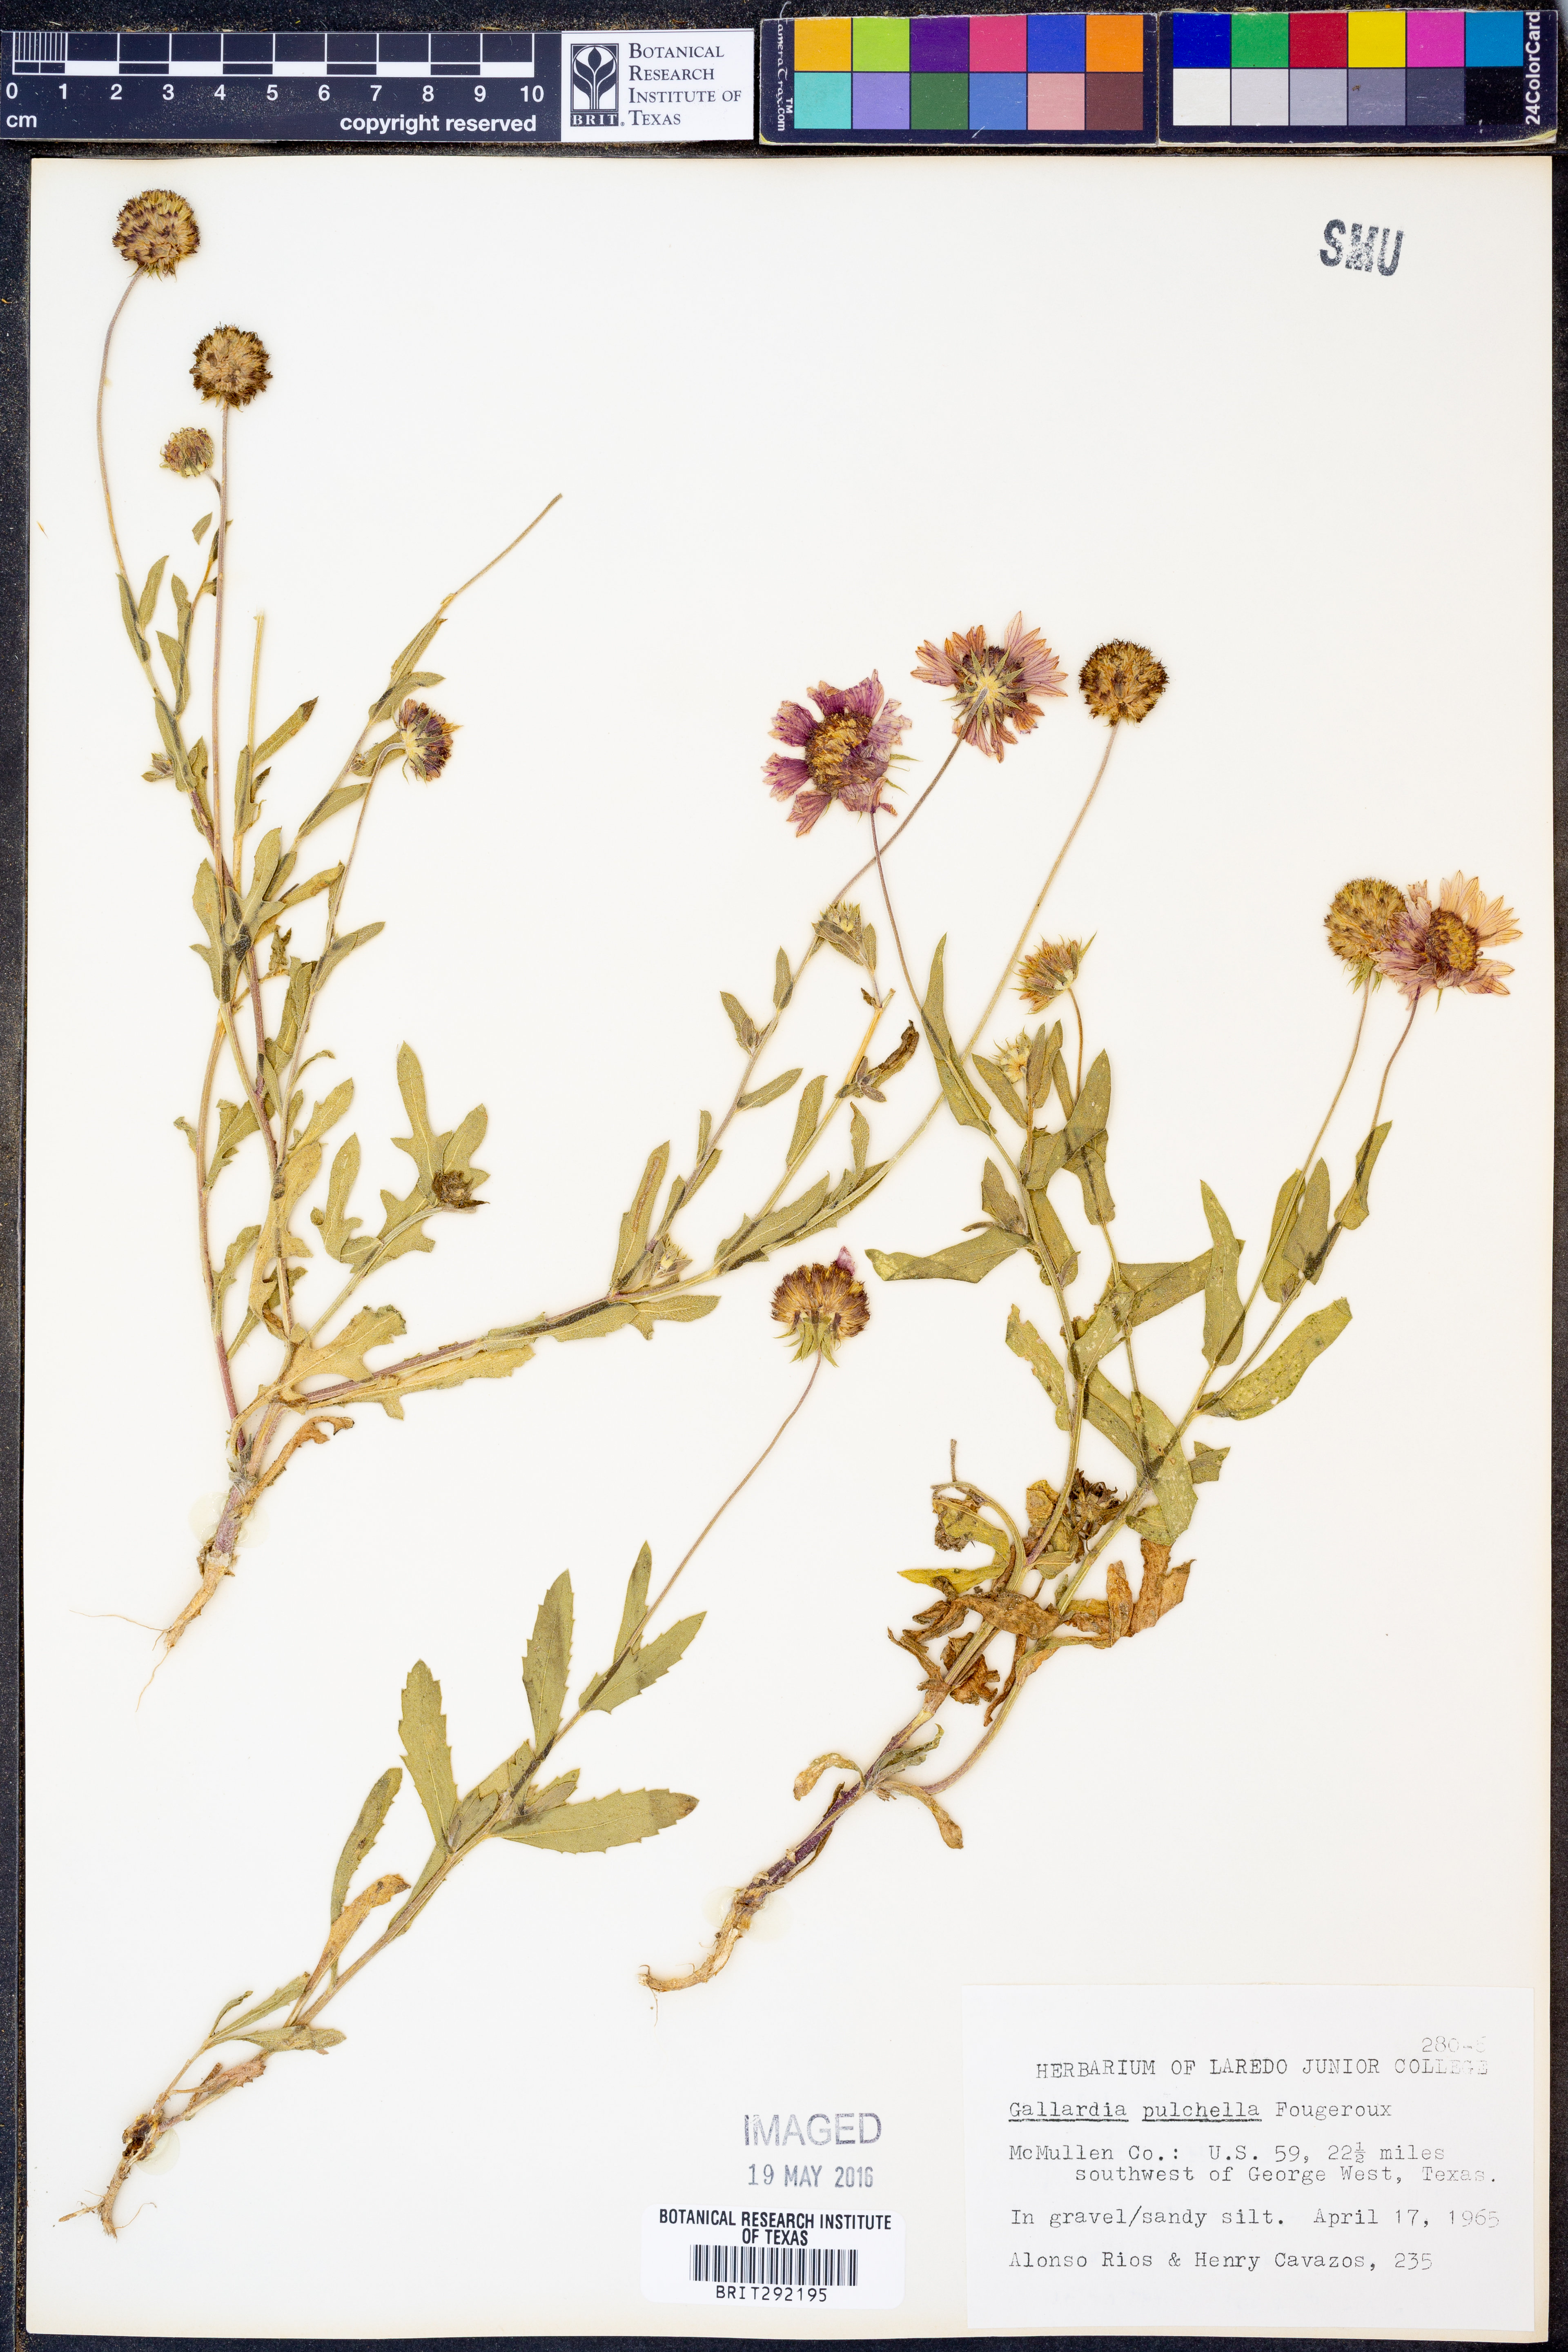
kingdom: Plantae
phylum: Tracheophyta
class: Magnoliopsida
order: Asterales
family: Asteraceae
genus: Gaillardia
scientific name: Gaillardia pulchella
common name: Firewheel
